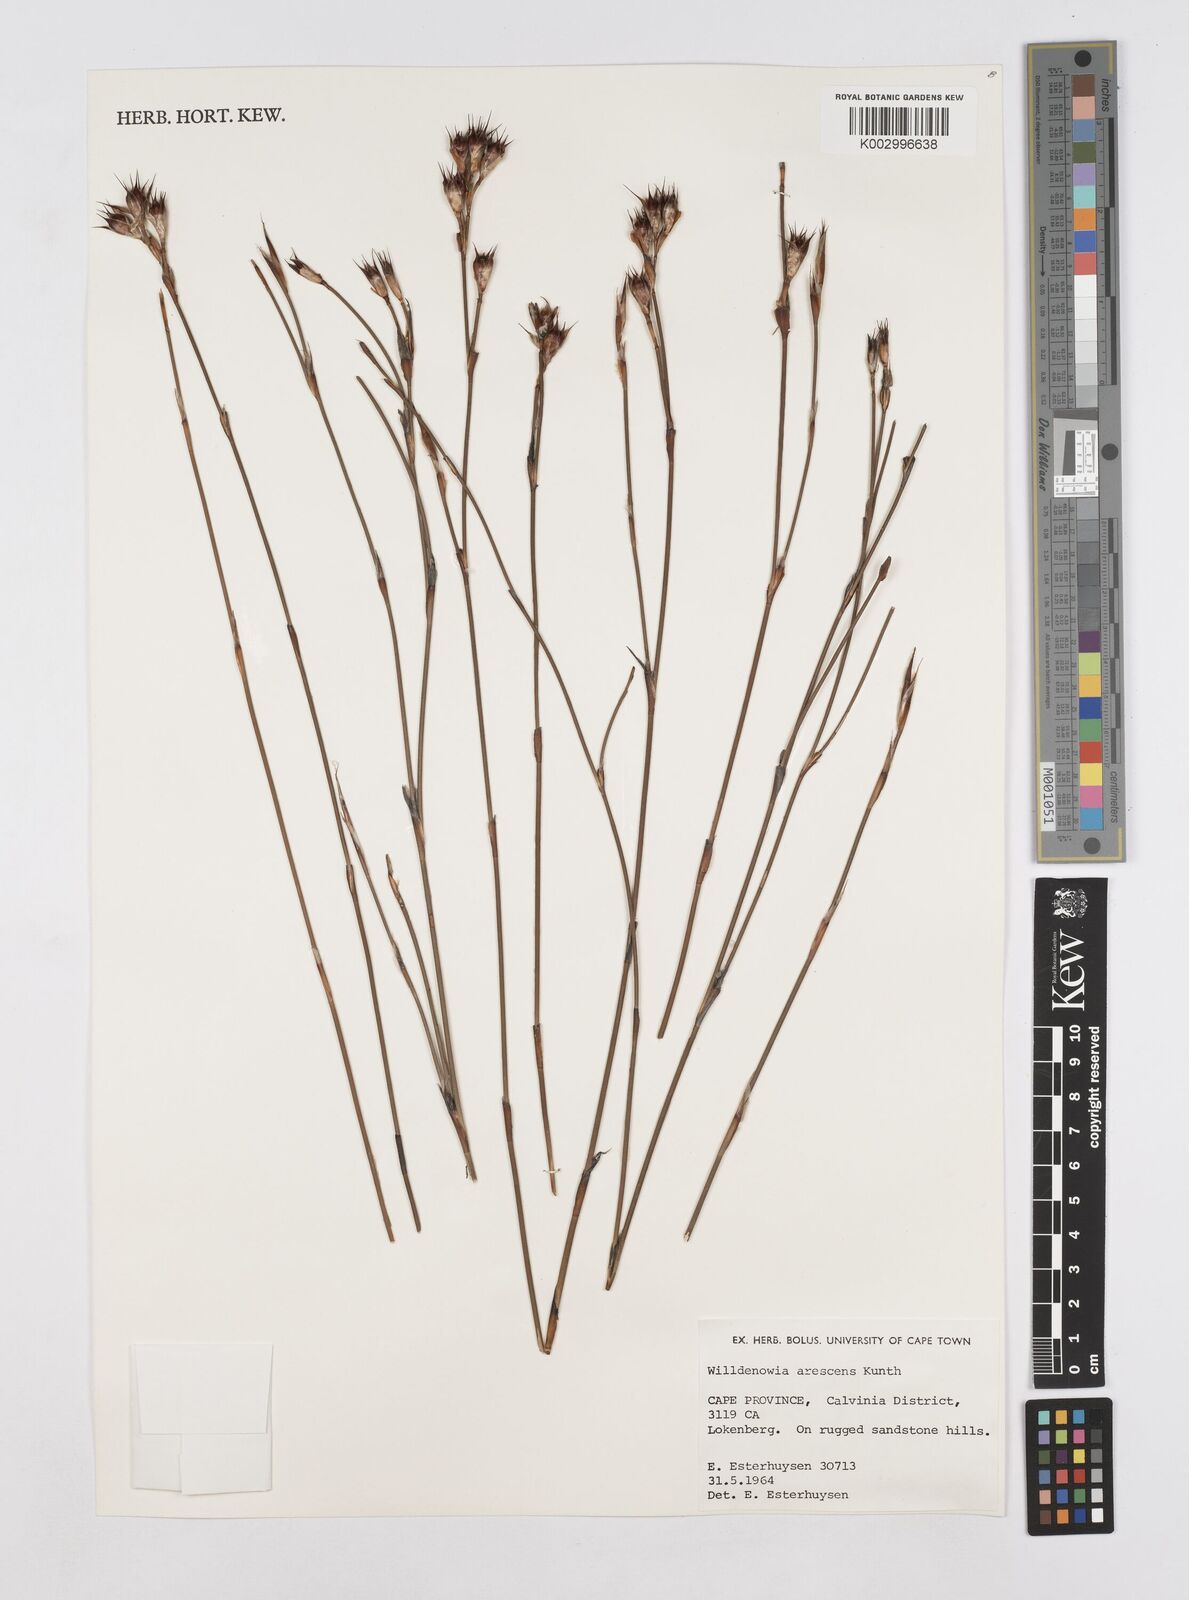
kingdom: Plantae
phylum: Tracheophyta
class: Liliopsida
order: Poales
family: Restionaceae
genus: Willdenowia
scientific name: Willdenowia arescens
